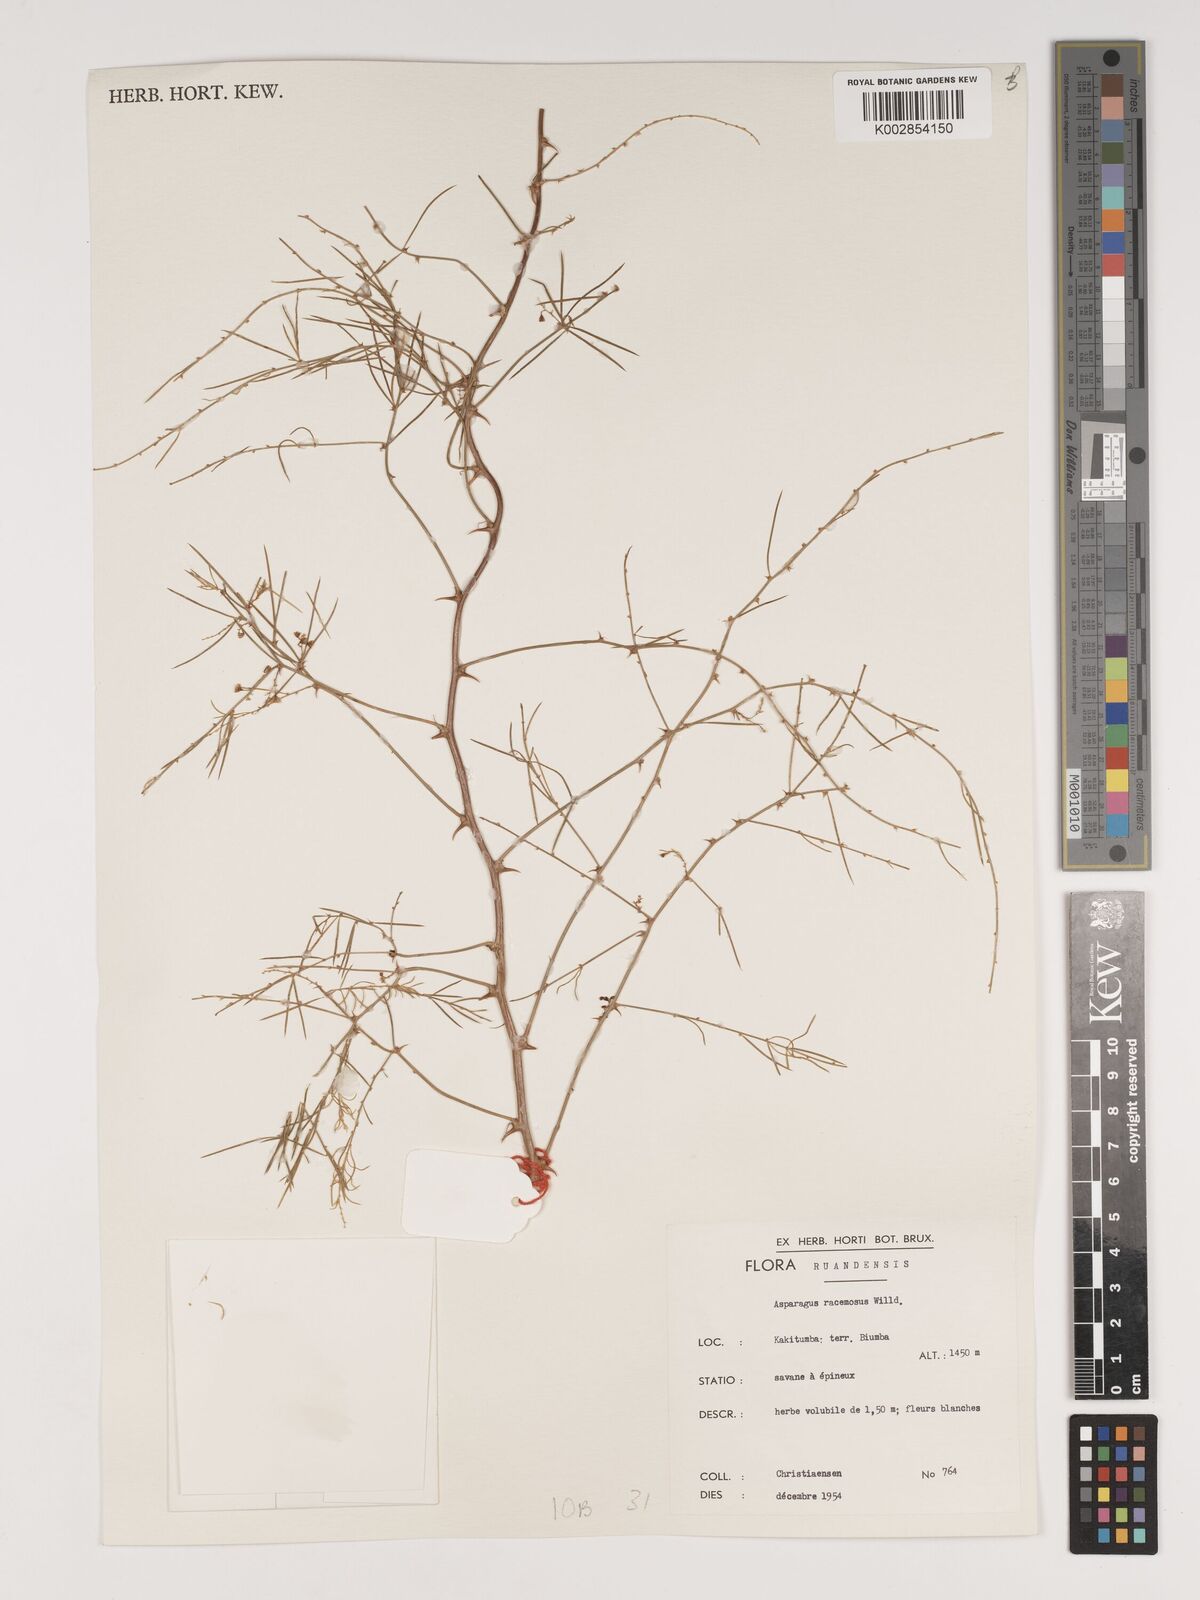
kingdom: Plantae
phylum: Tracheophyta
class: Liliopsida
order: Asparagales
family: Asparagaceae
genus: Asparagus
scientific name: Asparagus racemosus
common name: Asparagus-fern
